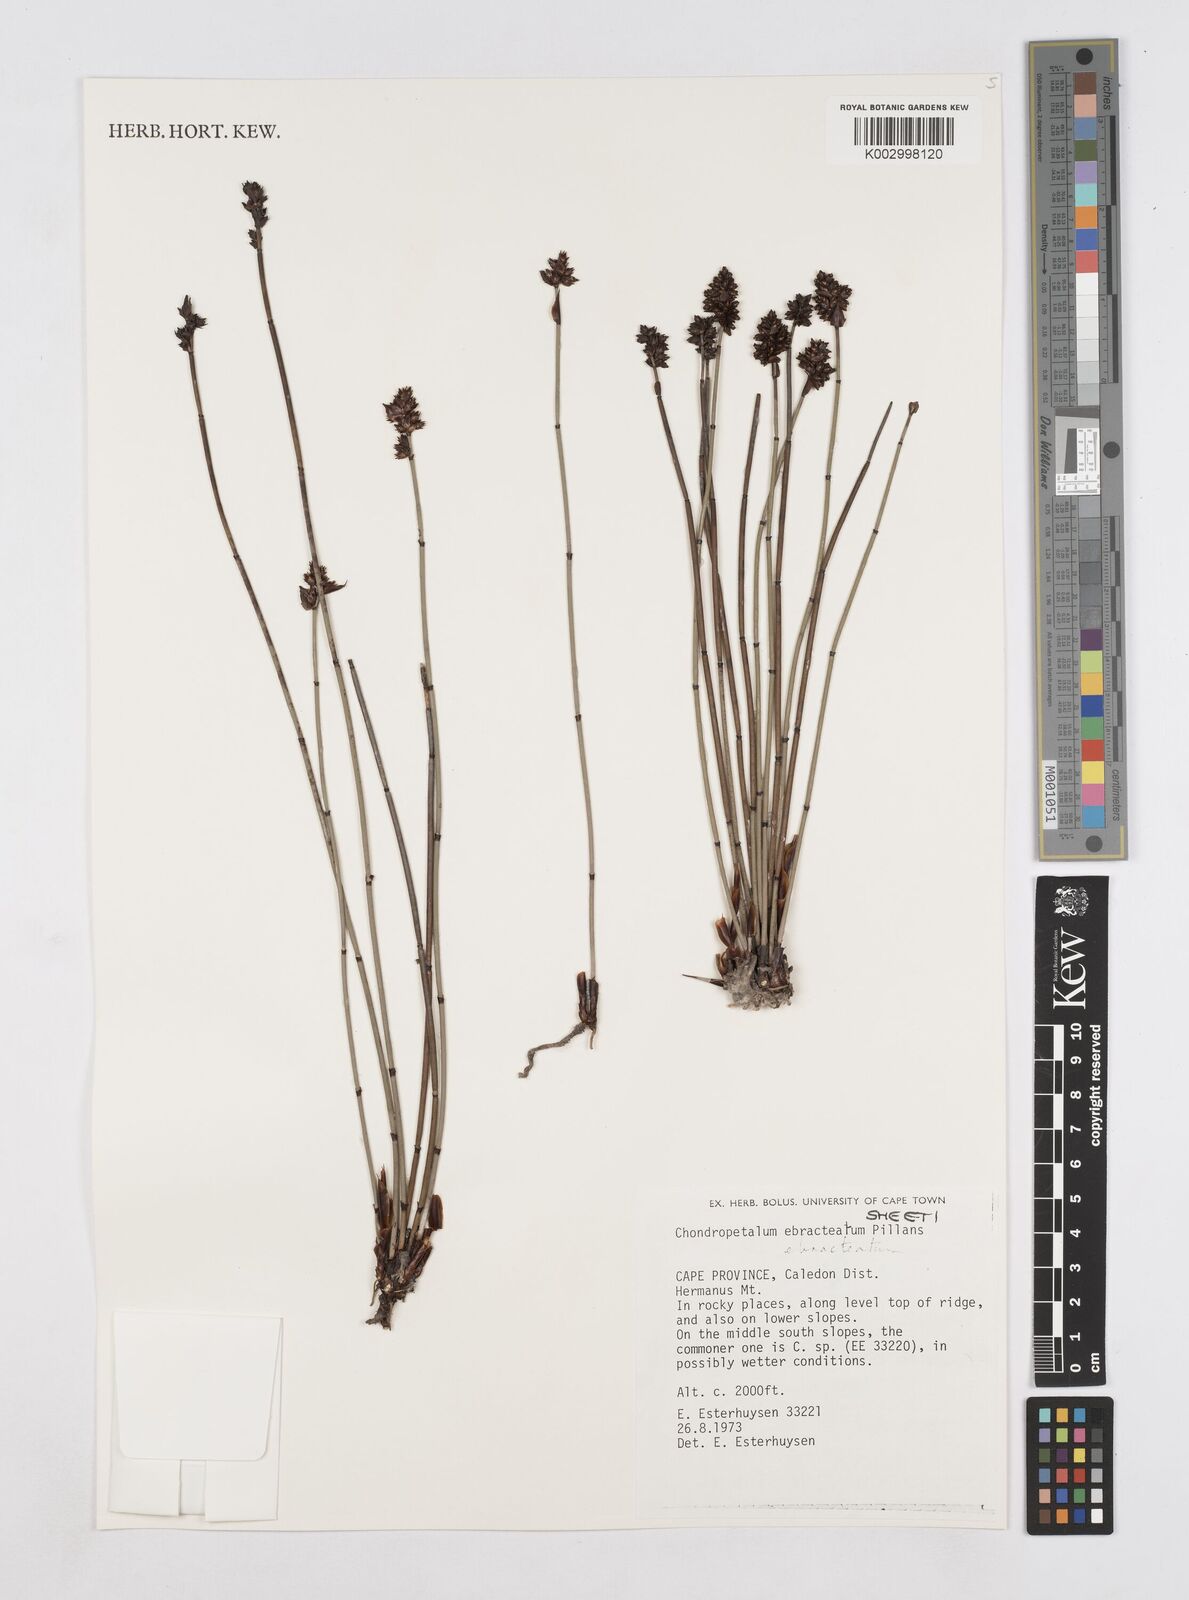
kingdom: Plantae
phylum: Tracheophyta
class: Liliopsida
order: Poales
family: Restionaceae
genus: Elegia
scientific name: Elegia ebracteata
